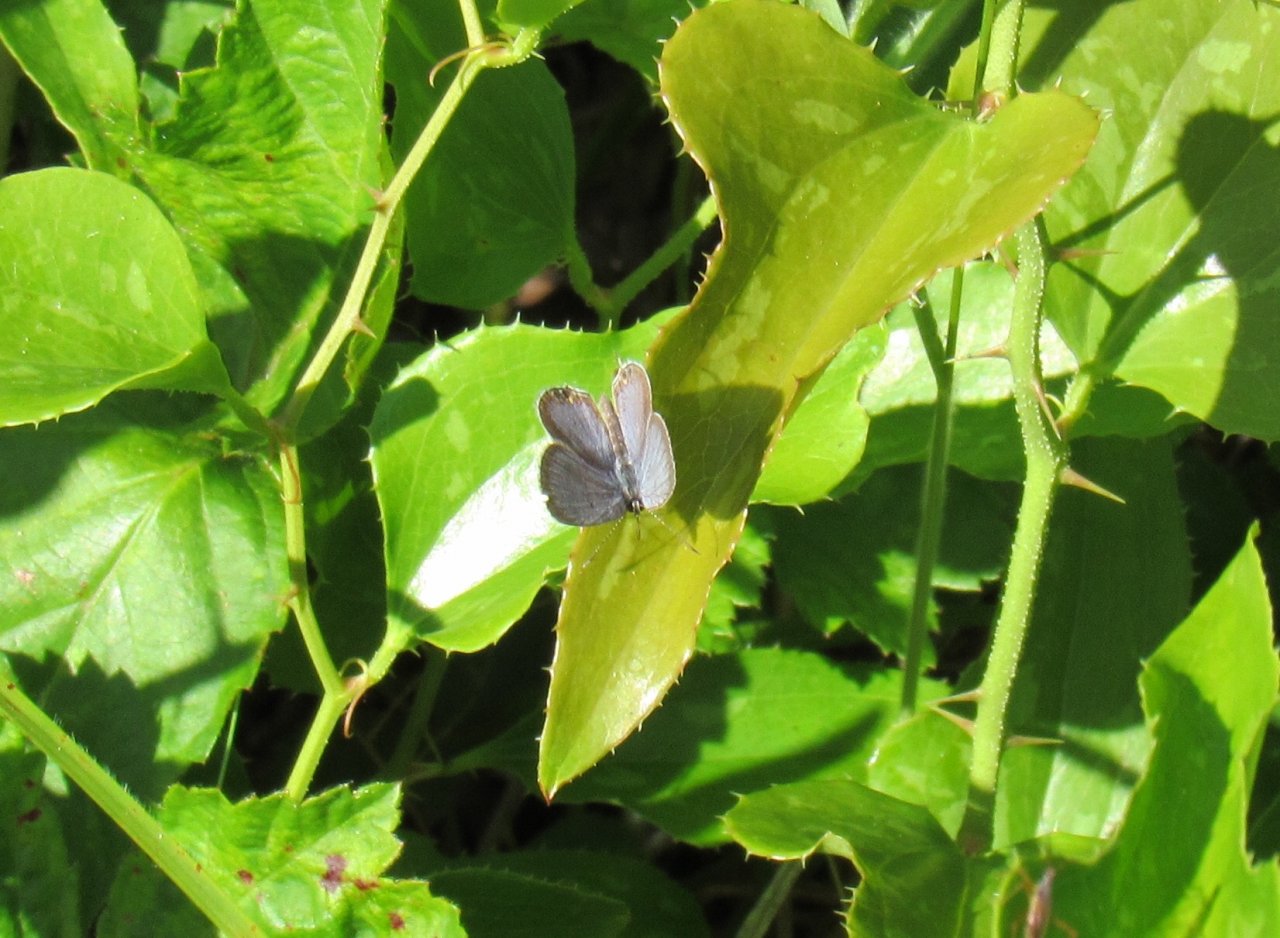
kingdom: Animalia
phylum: Arthropoda
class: Insecta
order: Lepidoptera
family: Lycaenidae
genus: Elkalyce
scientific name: Elkalyce comyntas
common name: Eastern Tailed-Blue
